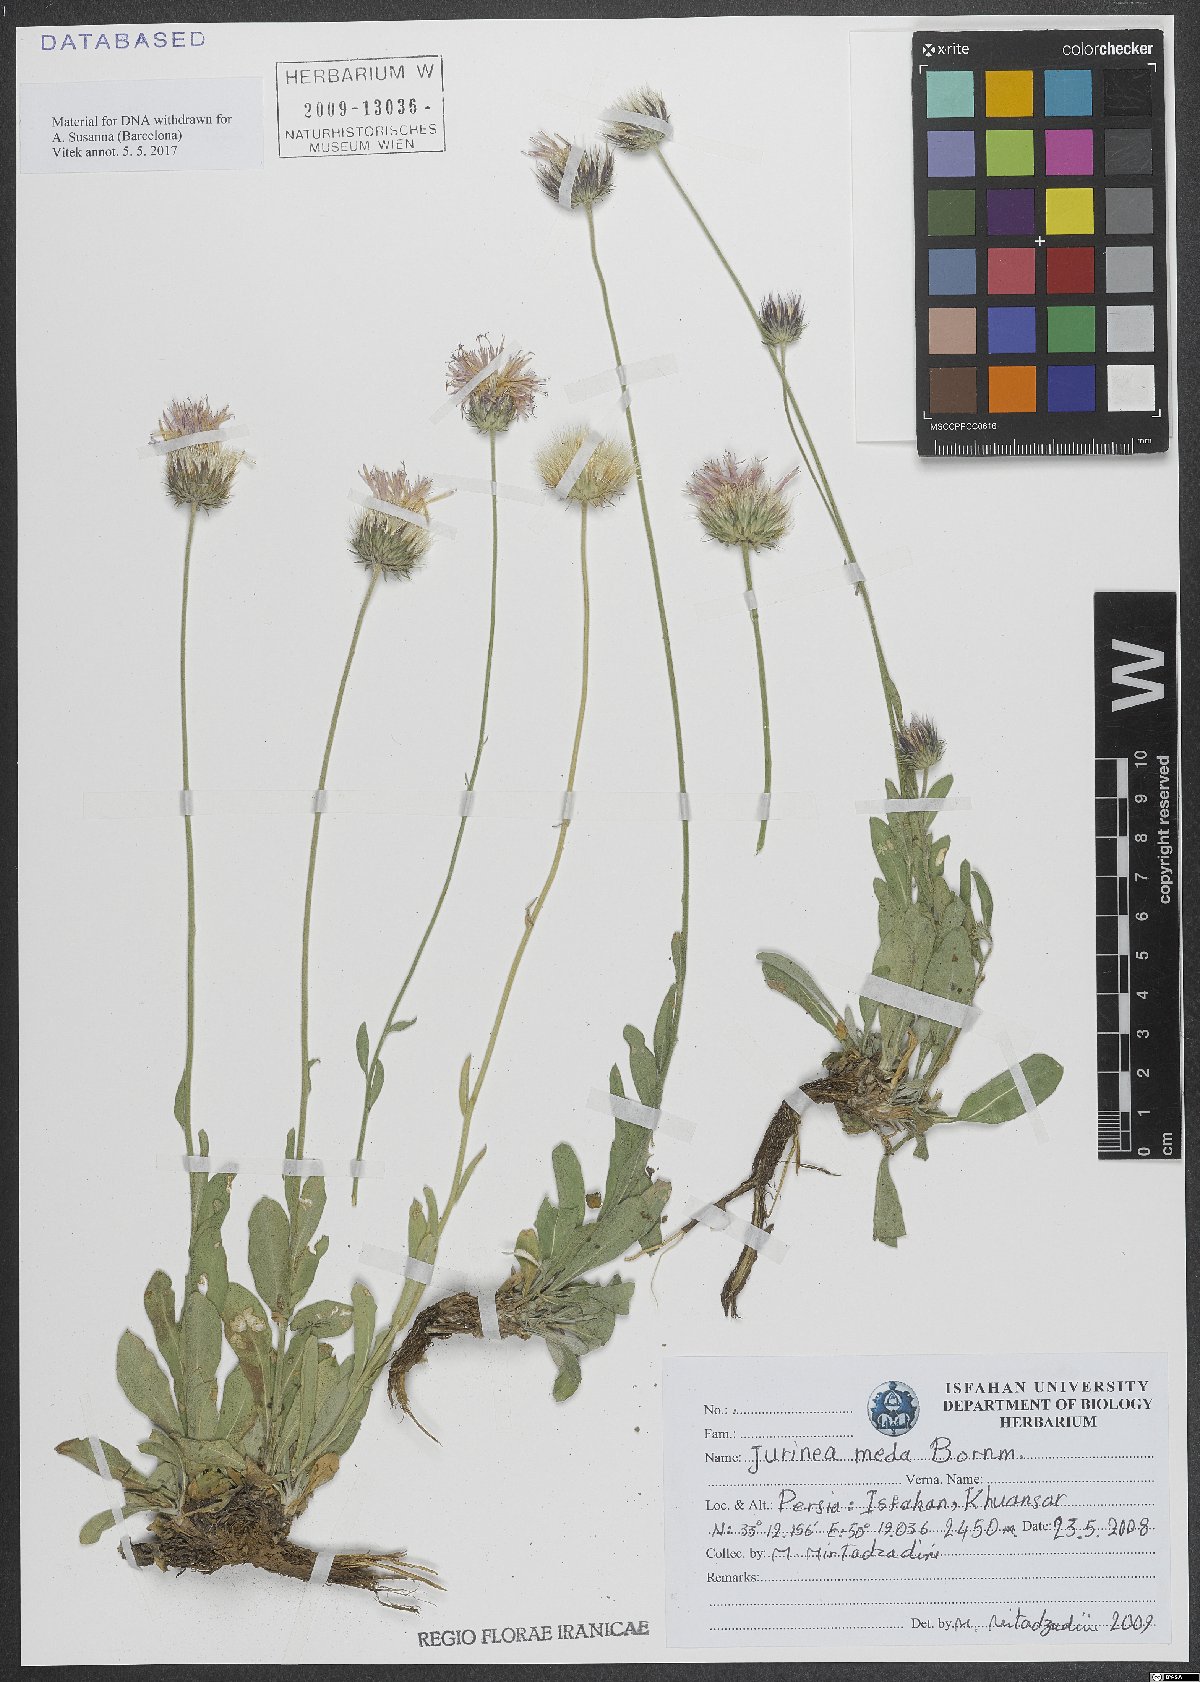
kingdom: Plantae
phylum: Tracheophyta
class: Magnoliopsida
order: Asterales
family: Asteraceae
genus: Jurinea
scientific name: Jurinea meda
